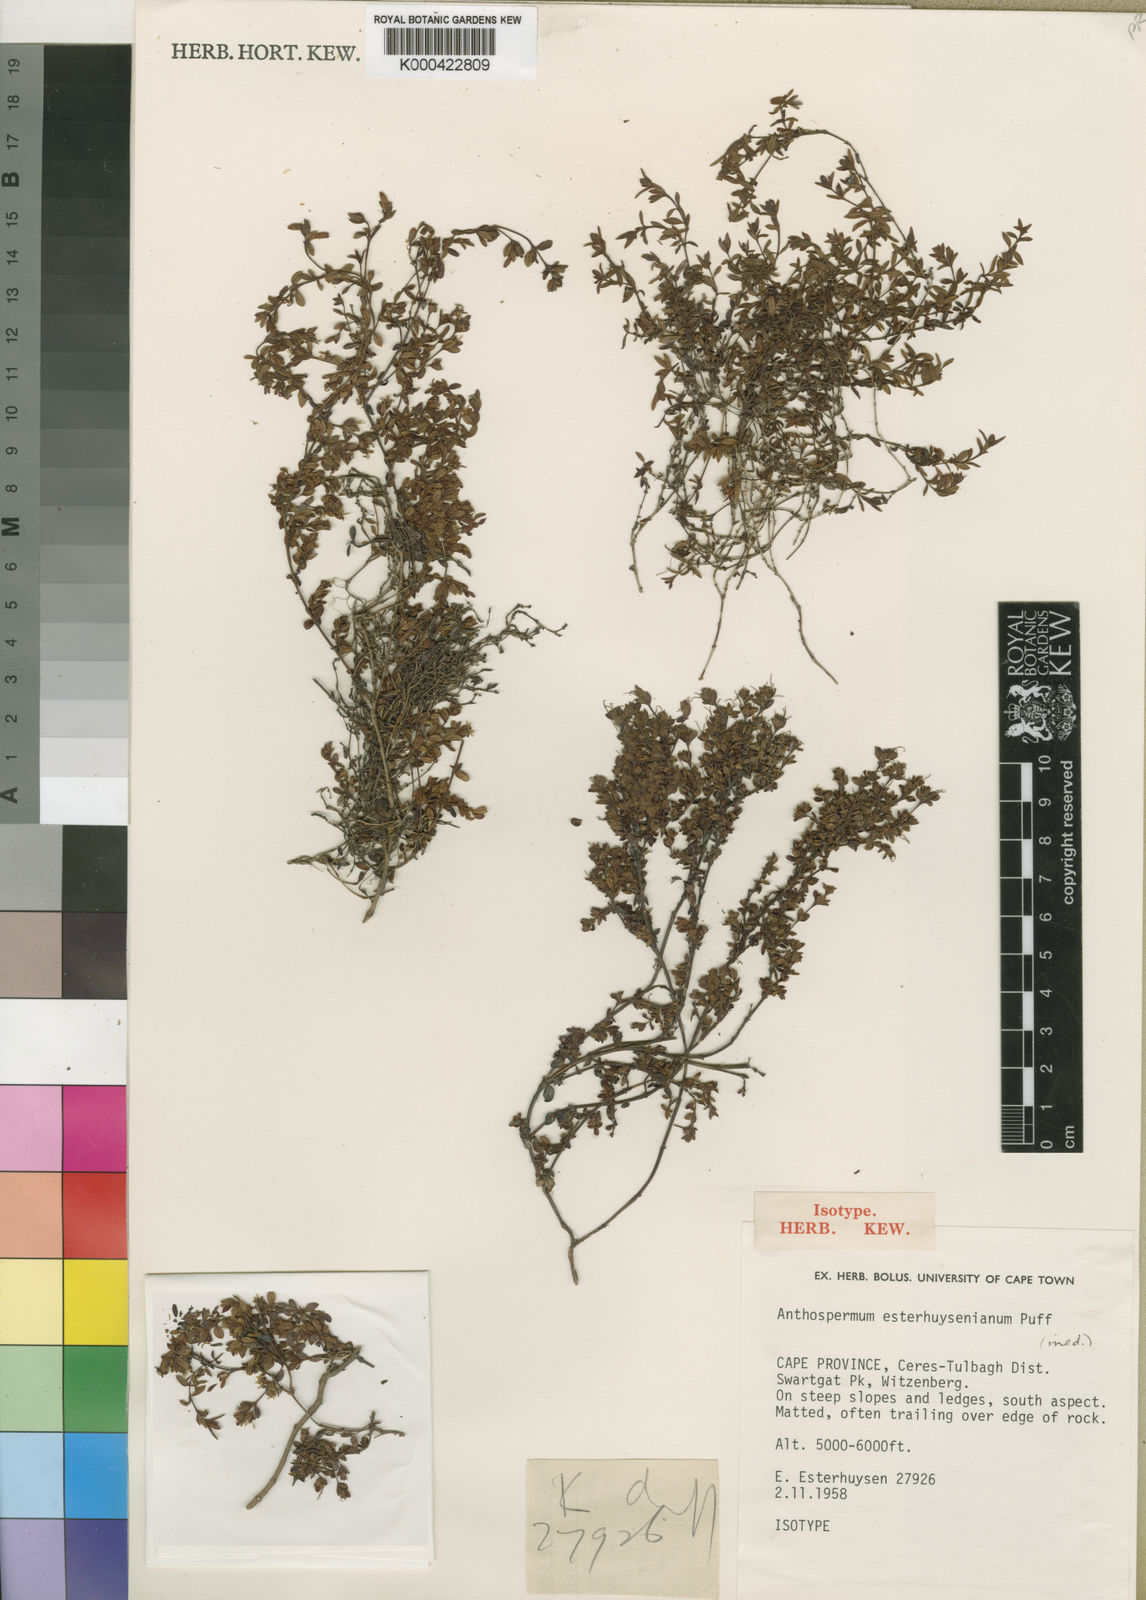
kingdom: Plantae
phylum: Tracheophyta
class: Magnoliopsida
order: Gentianales
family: Rubiaceae
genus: Anthospermum
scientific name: Anthospermum esterhuysenianum
